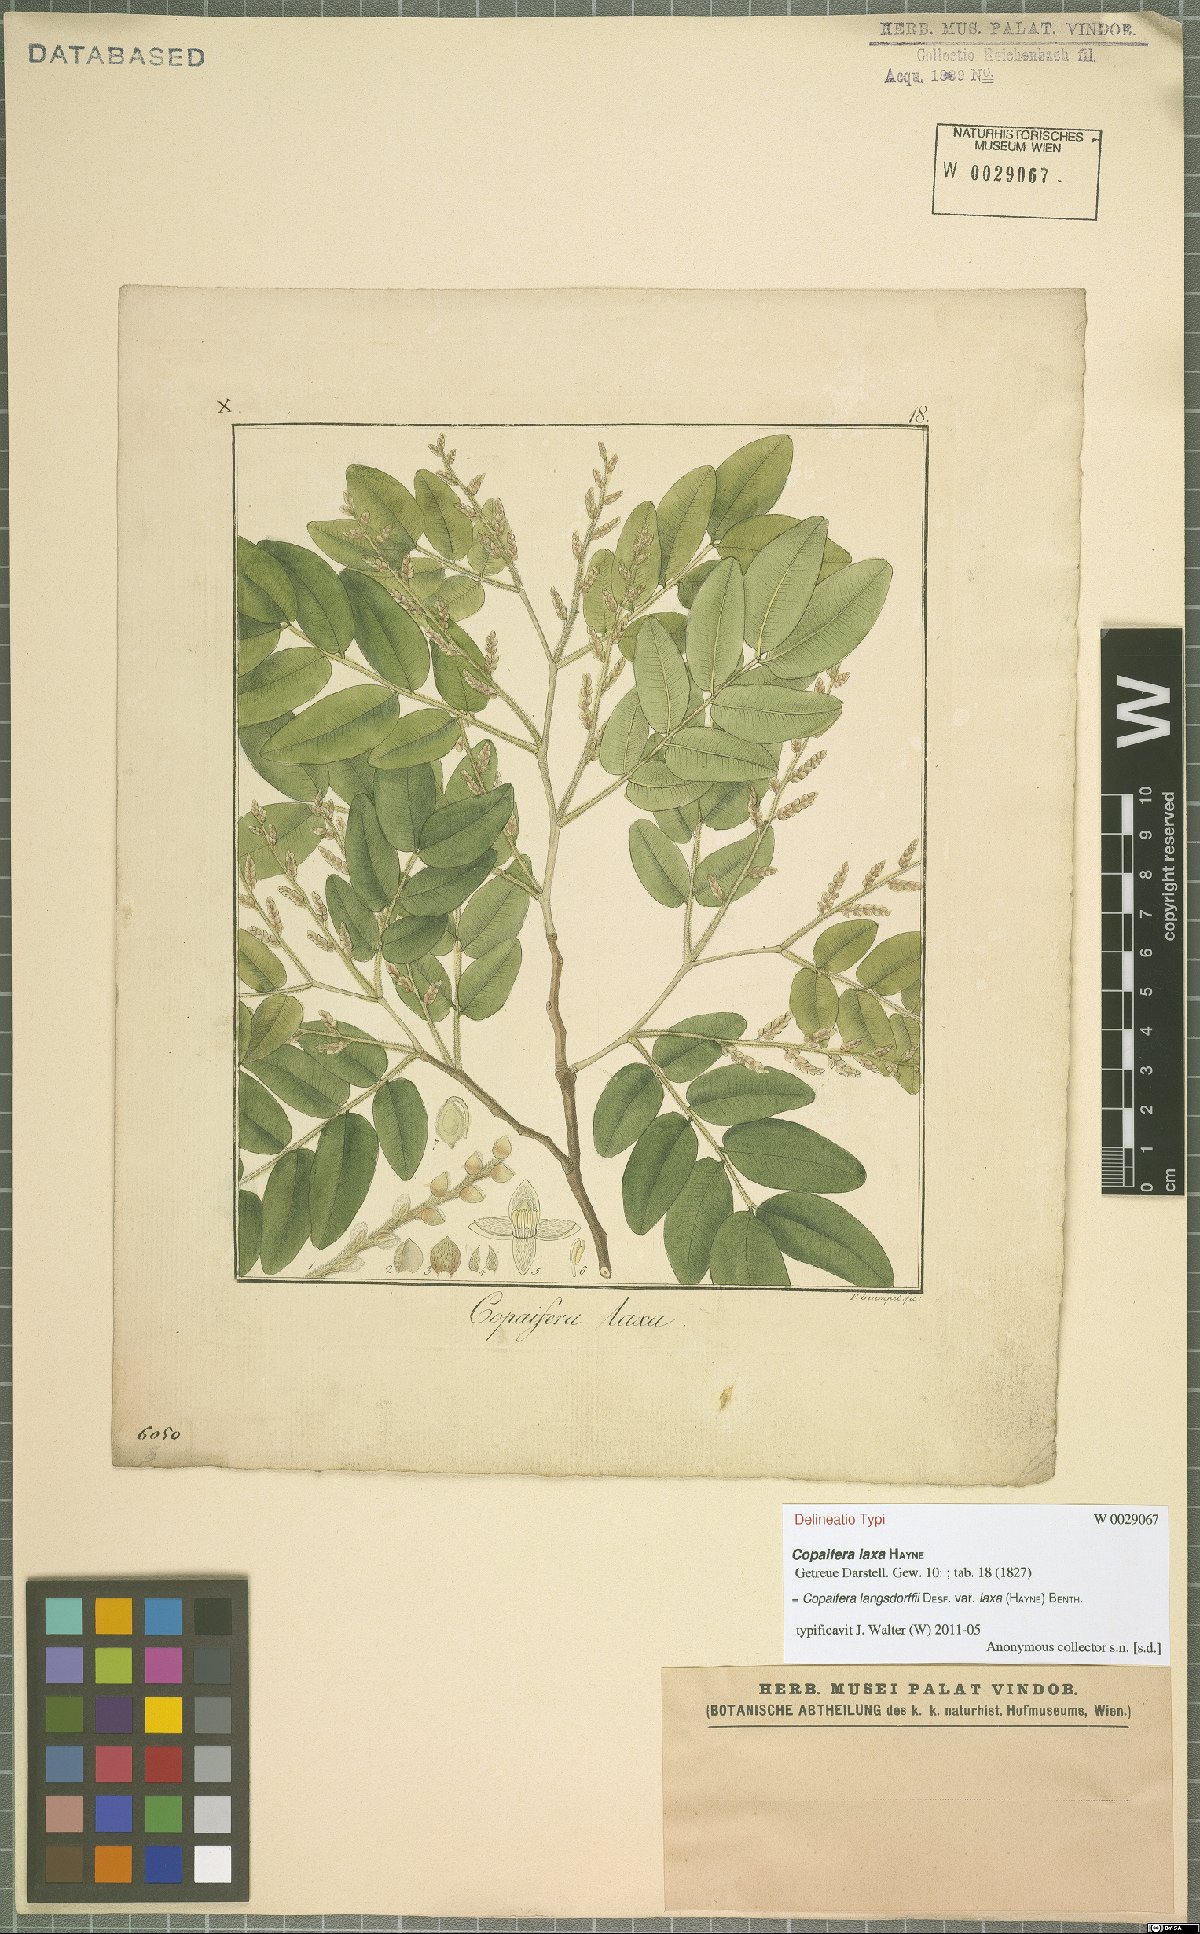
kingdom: Plantae
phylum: Tracheophyta
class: Magnoliopsida
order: Fabales
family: Fabaceae
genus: Copaifera
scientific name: Copaifera langsdorffii
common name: Brazilian diesel tree
